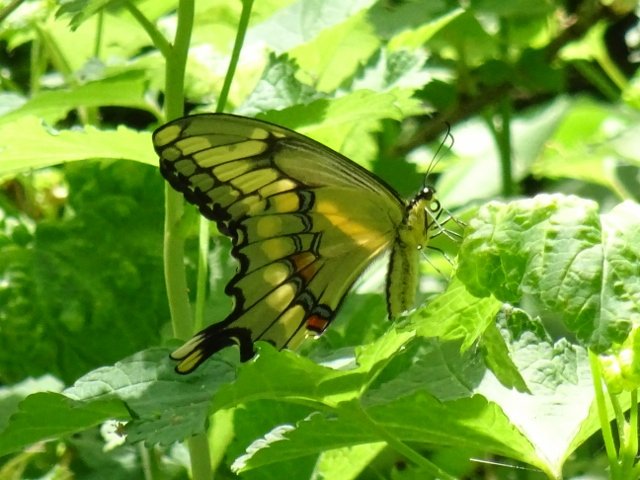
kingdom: Animalia
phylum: Arthropoda
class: Insecta
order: Lepidoptera
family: Papilionidae
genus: Papilio
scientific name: Papilio cresphontes
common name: Eastern Giant Swallowtail
